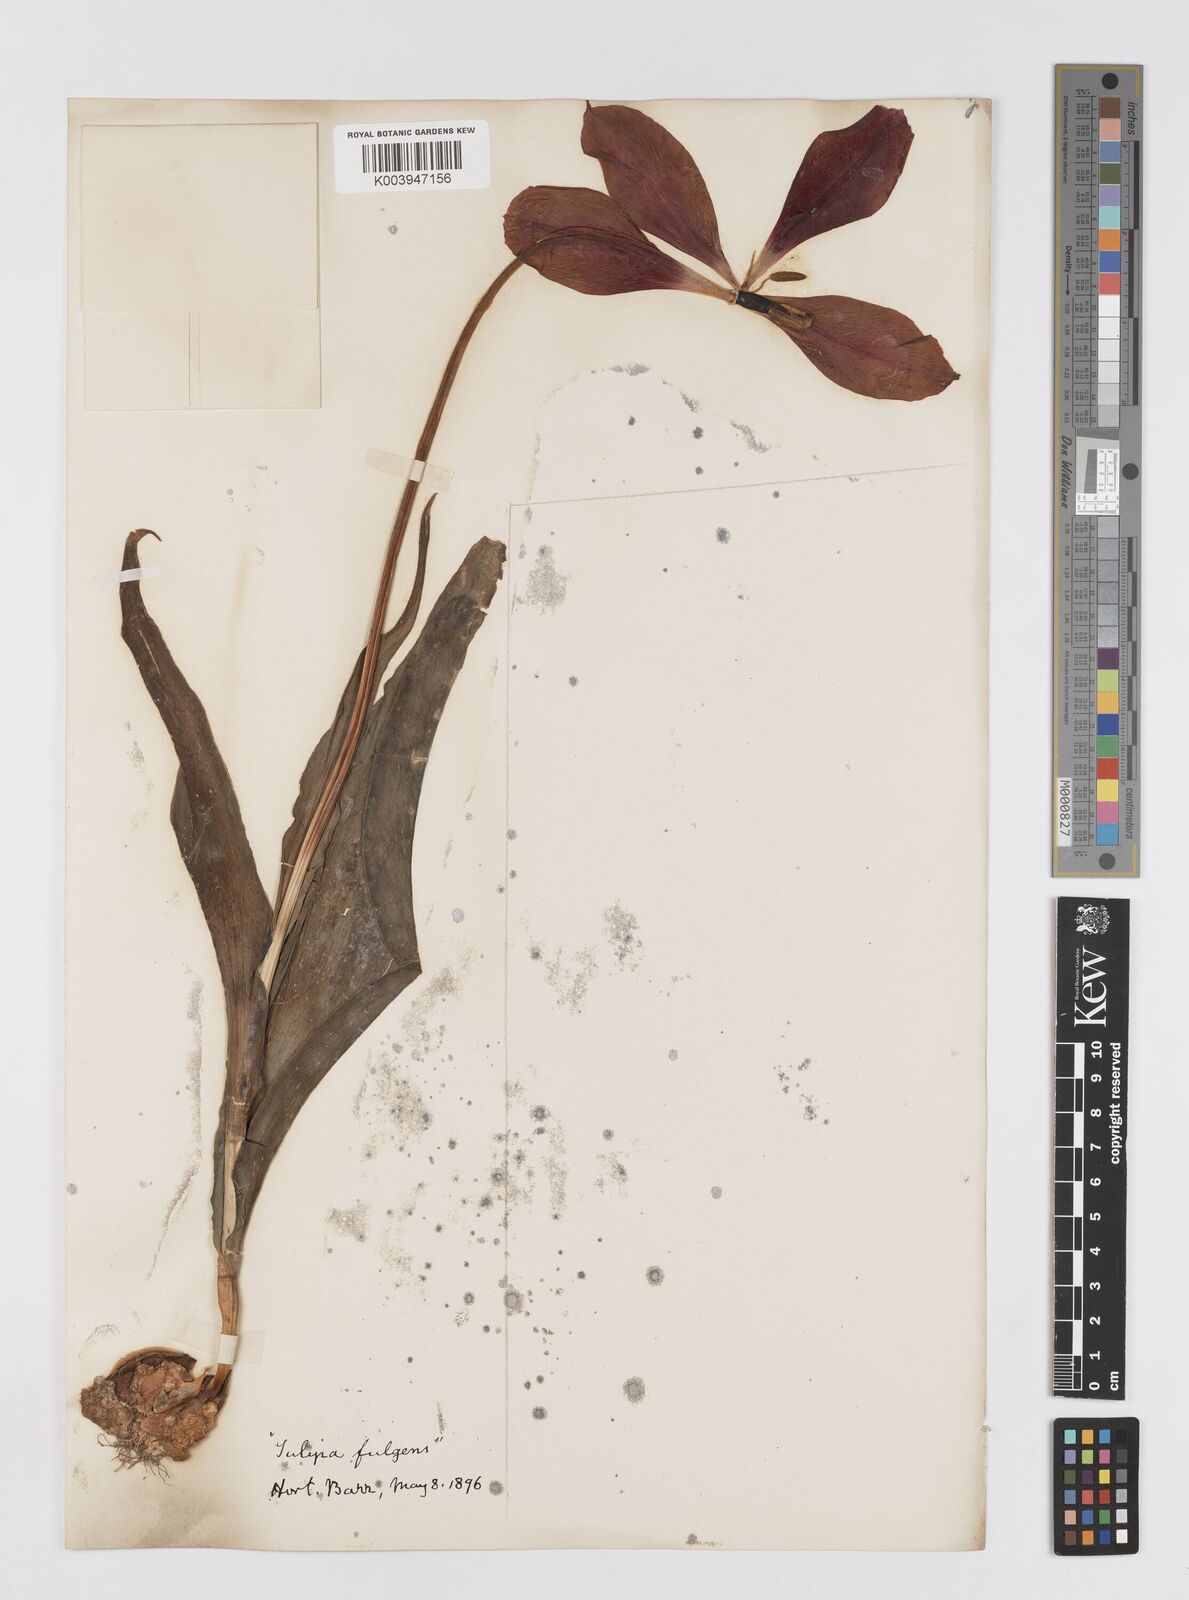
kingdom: Plantae
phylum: Tracheophyta
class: Liliopsida
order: Liliales
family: Liliaceae
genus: Tulipa
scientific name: Tulipa gesneriana
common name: Garden tulip
